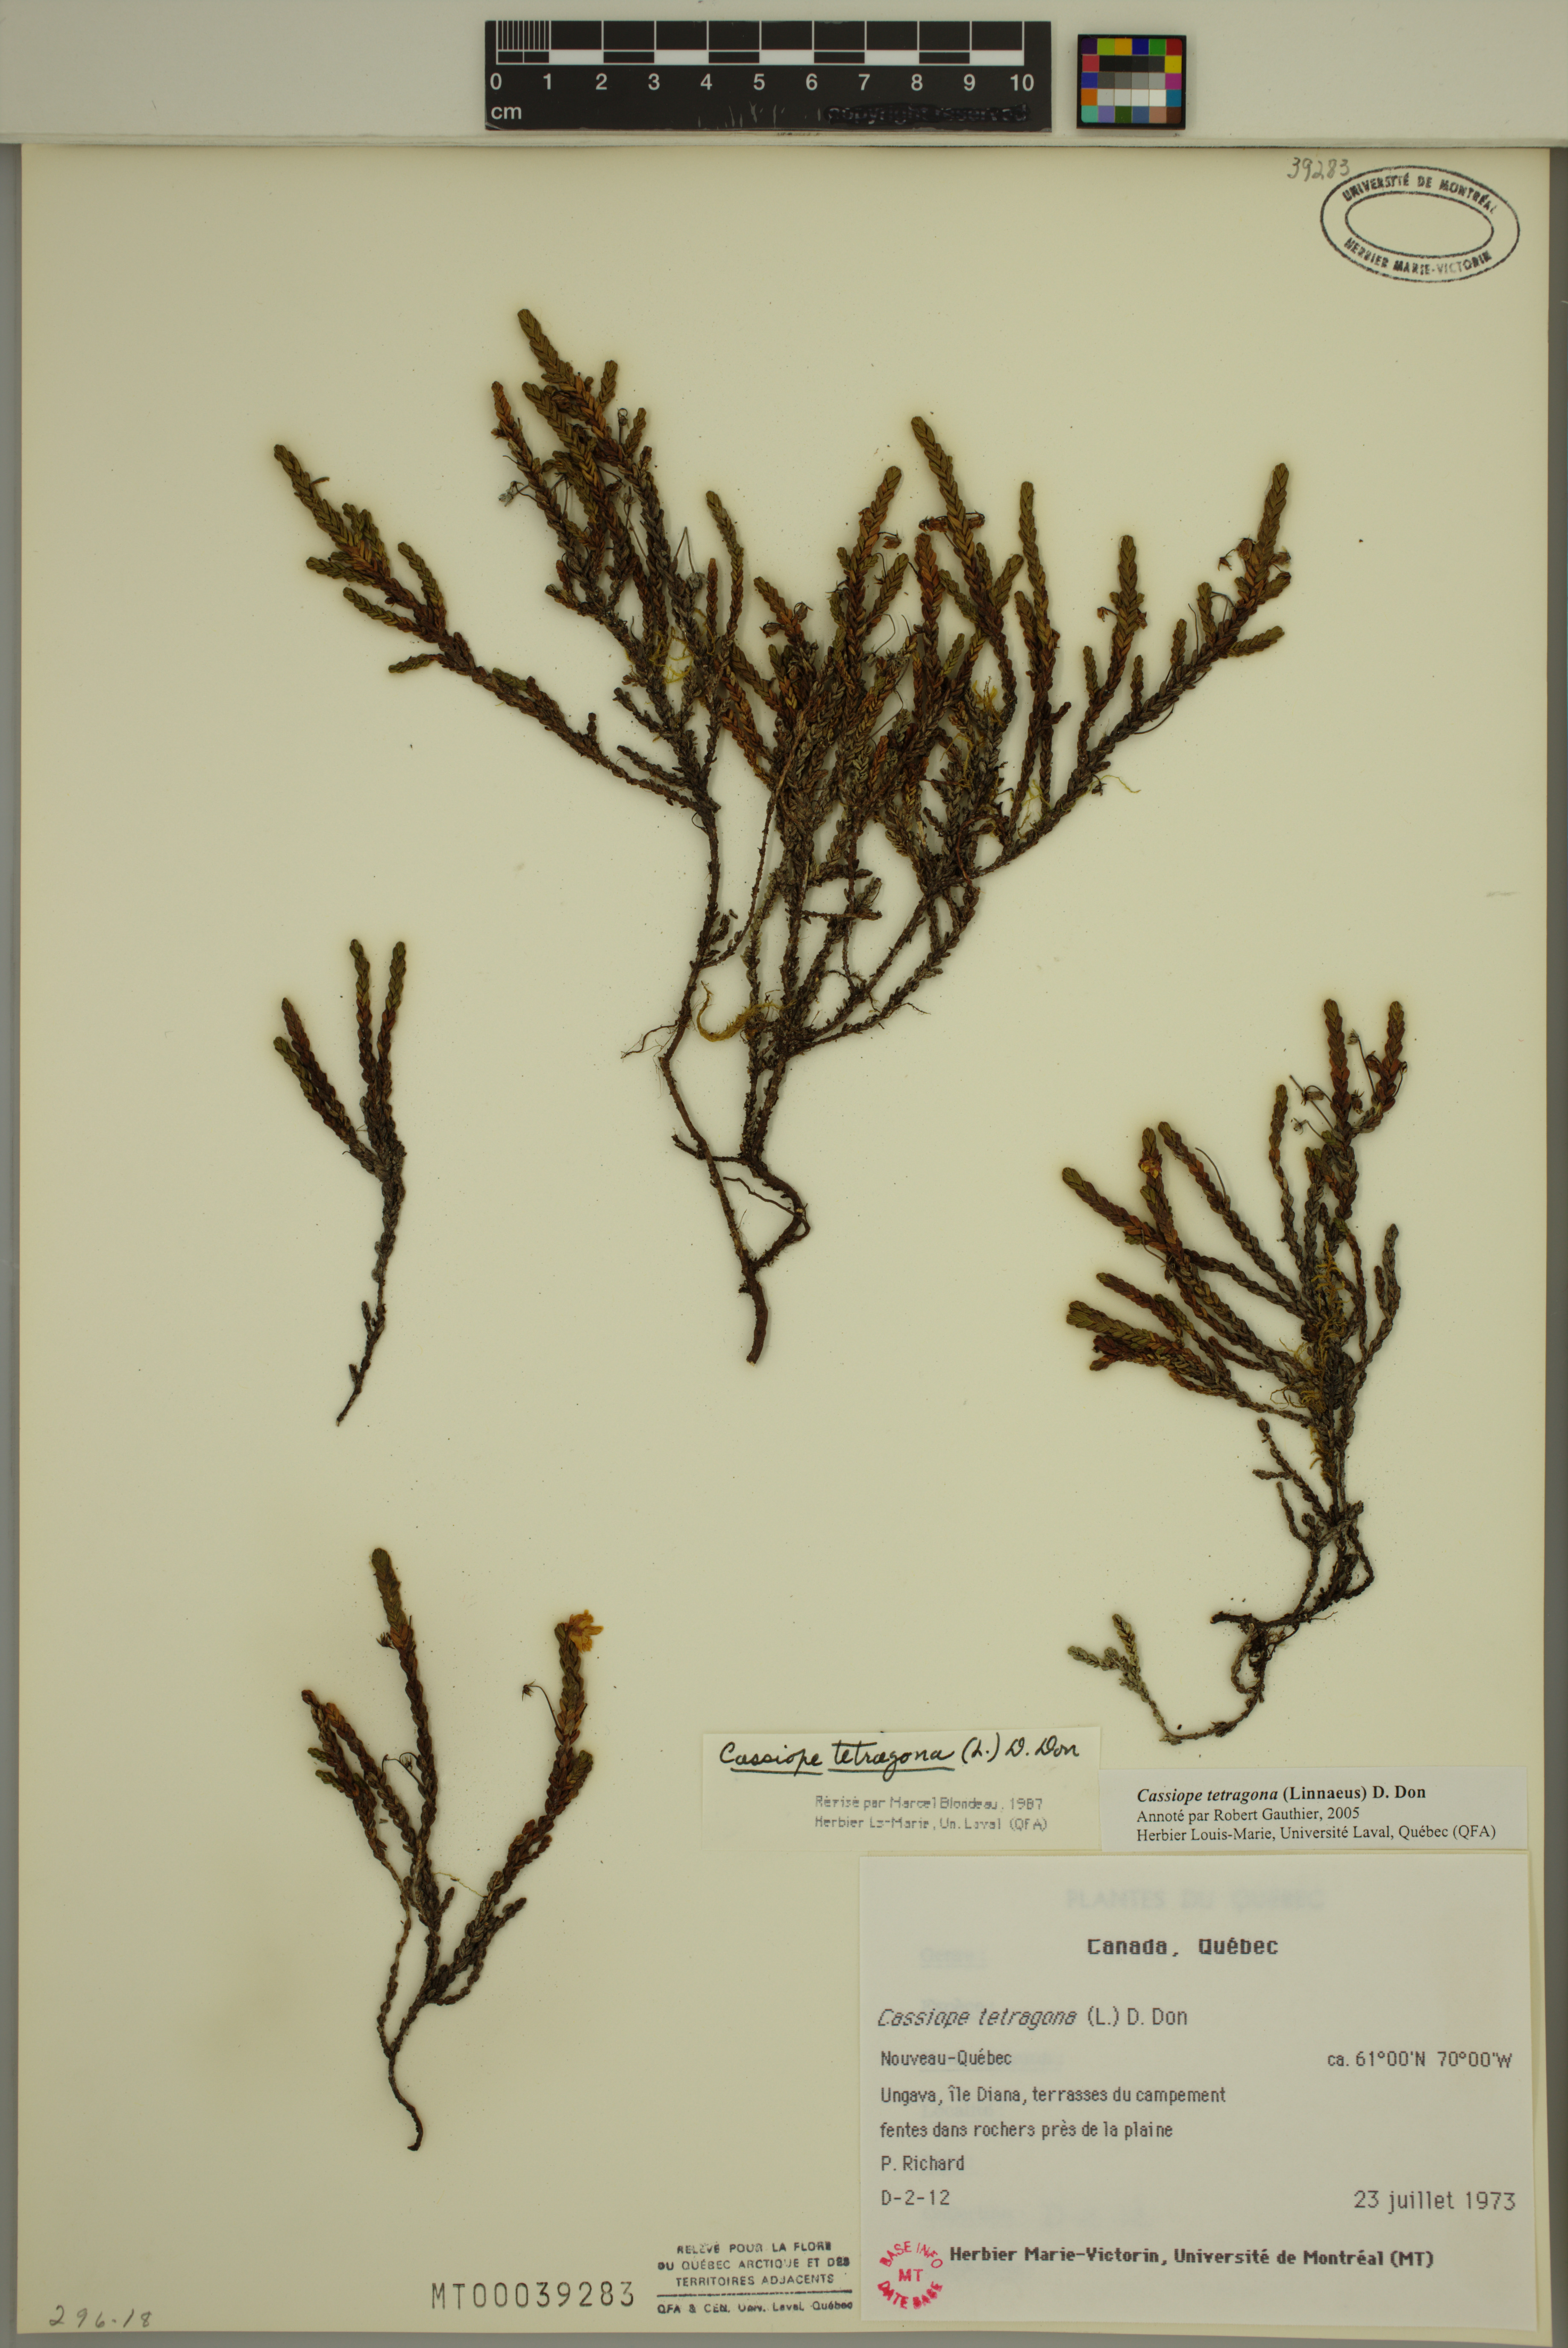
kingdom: Plantae
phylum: Tracheophyta
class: Magnoliopsida
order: Ericales
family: Ericaceae
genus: Cassiope
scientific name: Cassiope tetragona
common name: Arctic bell heather
